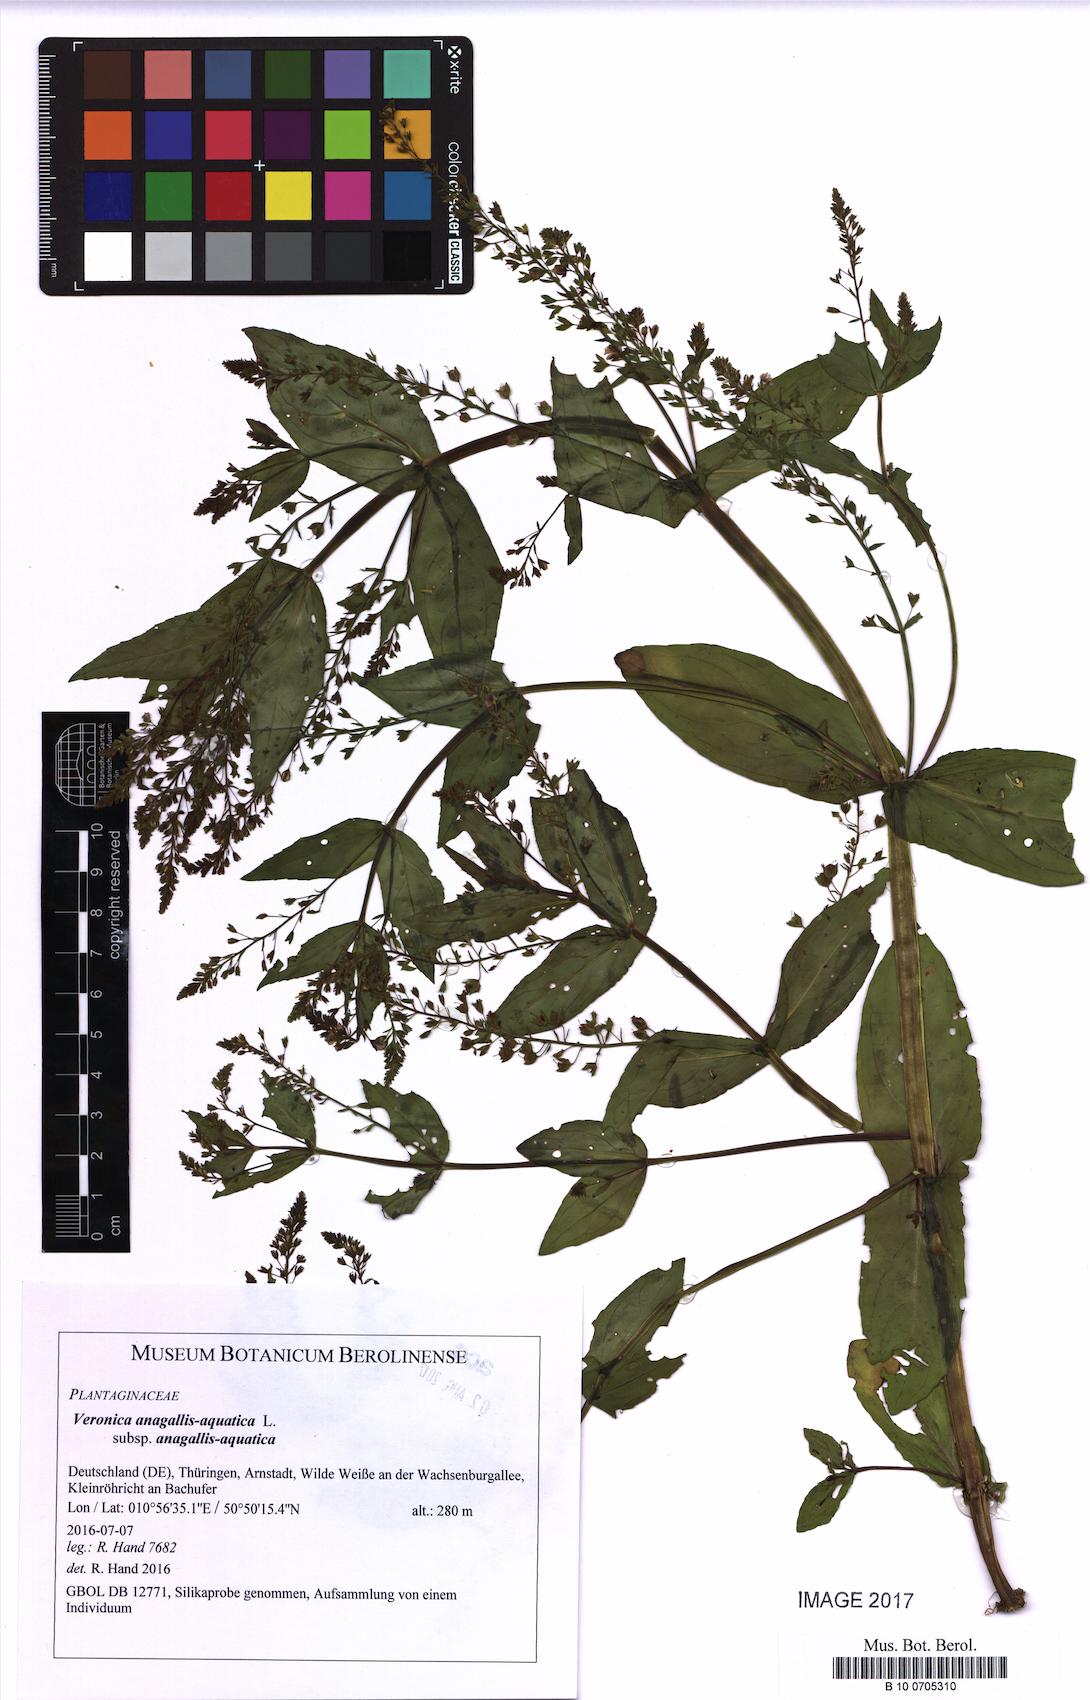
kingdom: Plantae
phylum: Tracheophyta
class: Magnoliopsida
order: Lamiales
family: Plantaginaceae
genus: Veronica
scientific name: Veronica anagallis-aquatica
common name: Water speedwell
